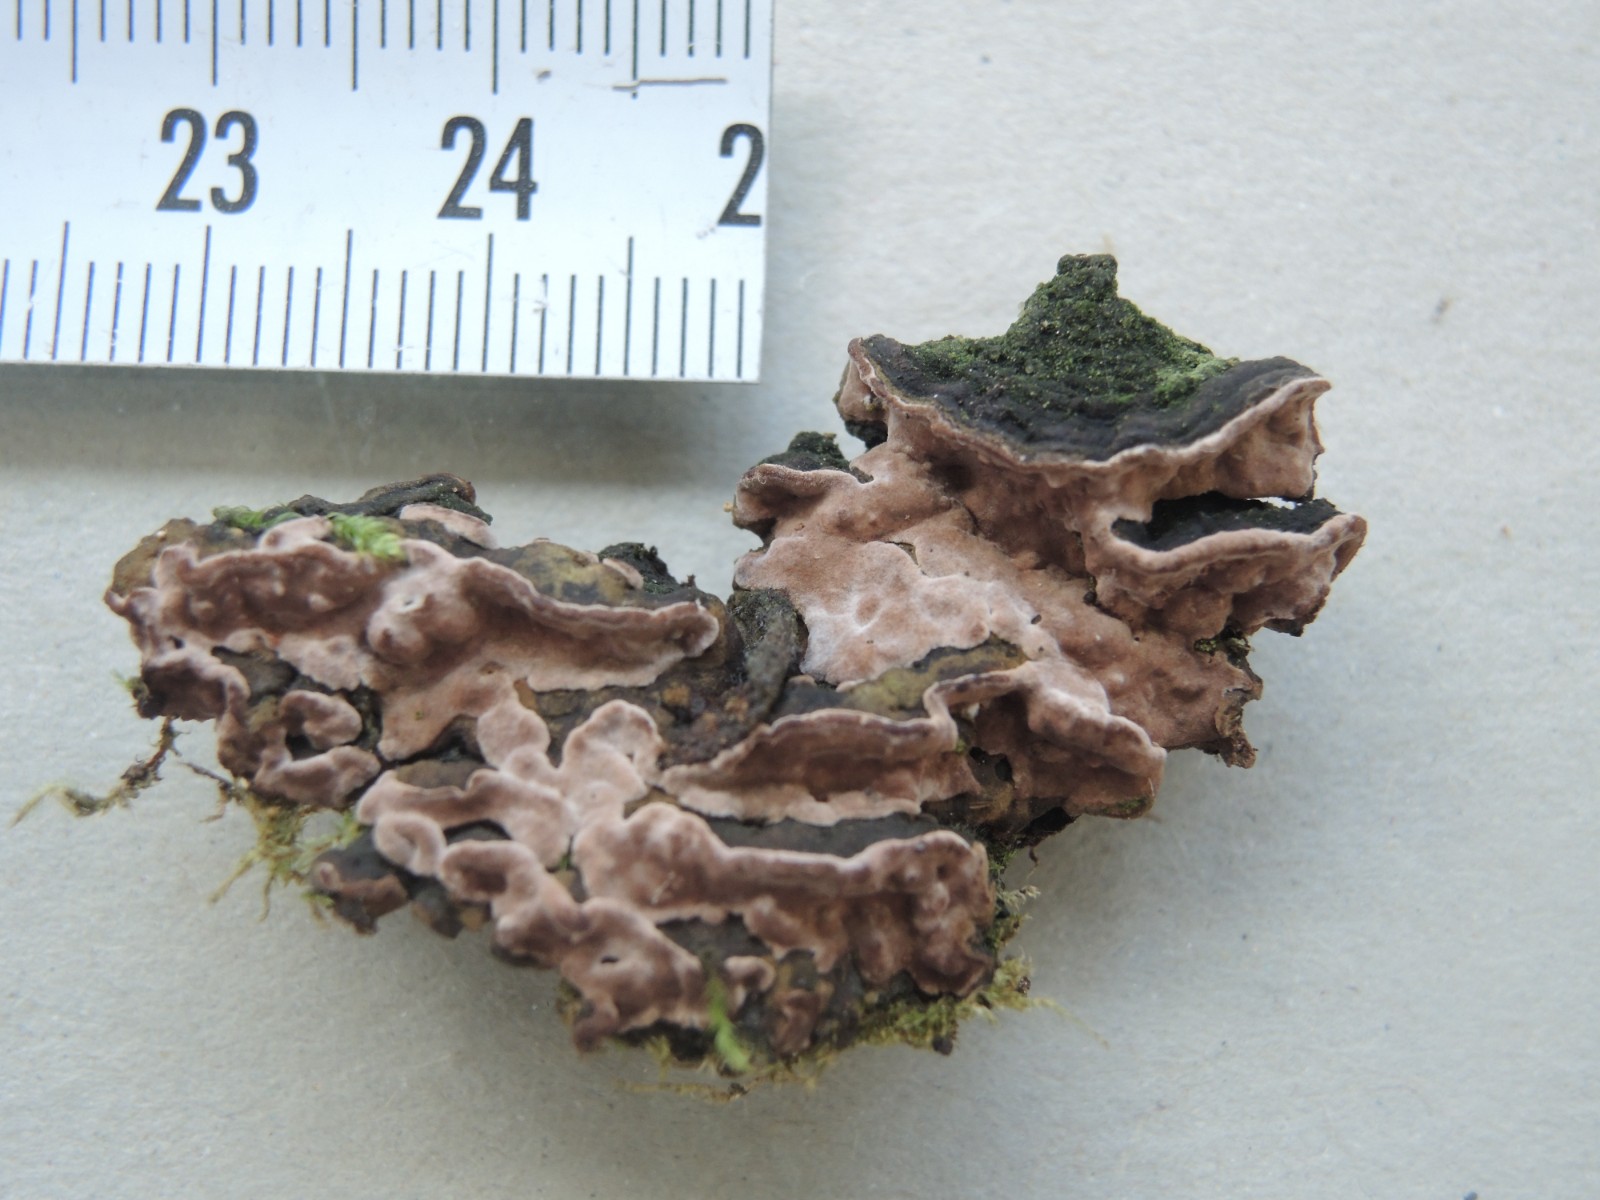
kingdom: Fungi
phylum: Basidiomycota
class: Agaricomycetes
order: Russulales
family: Echinodontiaceae
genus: Amylostereum
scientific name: Amylostereum chailletii
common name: gran-lædersvamp
